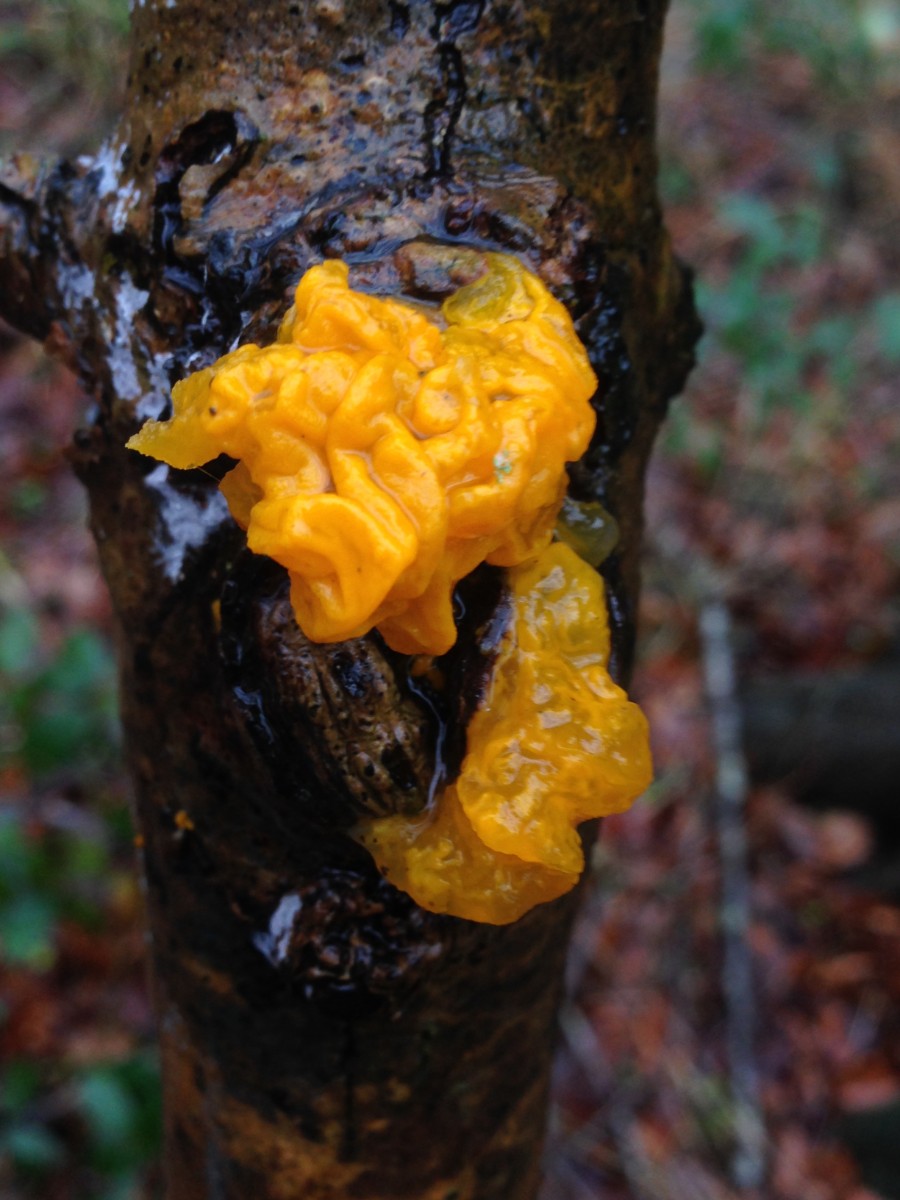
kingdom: Fungi
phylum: Basidiomycota
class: Tremellomycetes
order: Tremellales
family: Tremellaceae
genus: Tremella
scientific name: Tremella mesenterica
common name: gul bævresvamp
